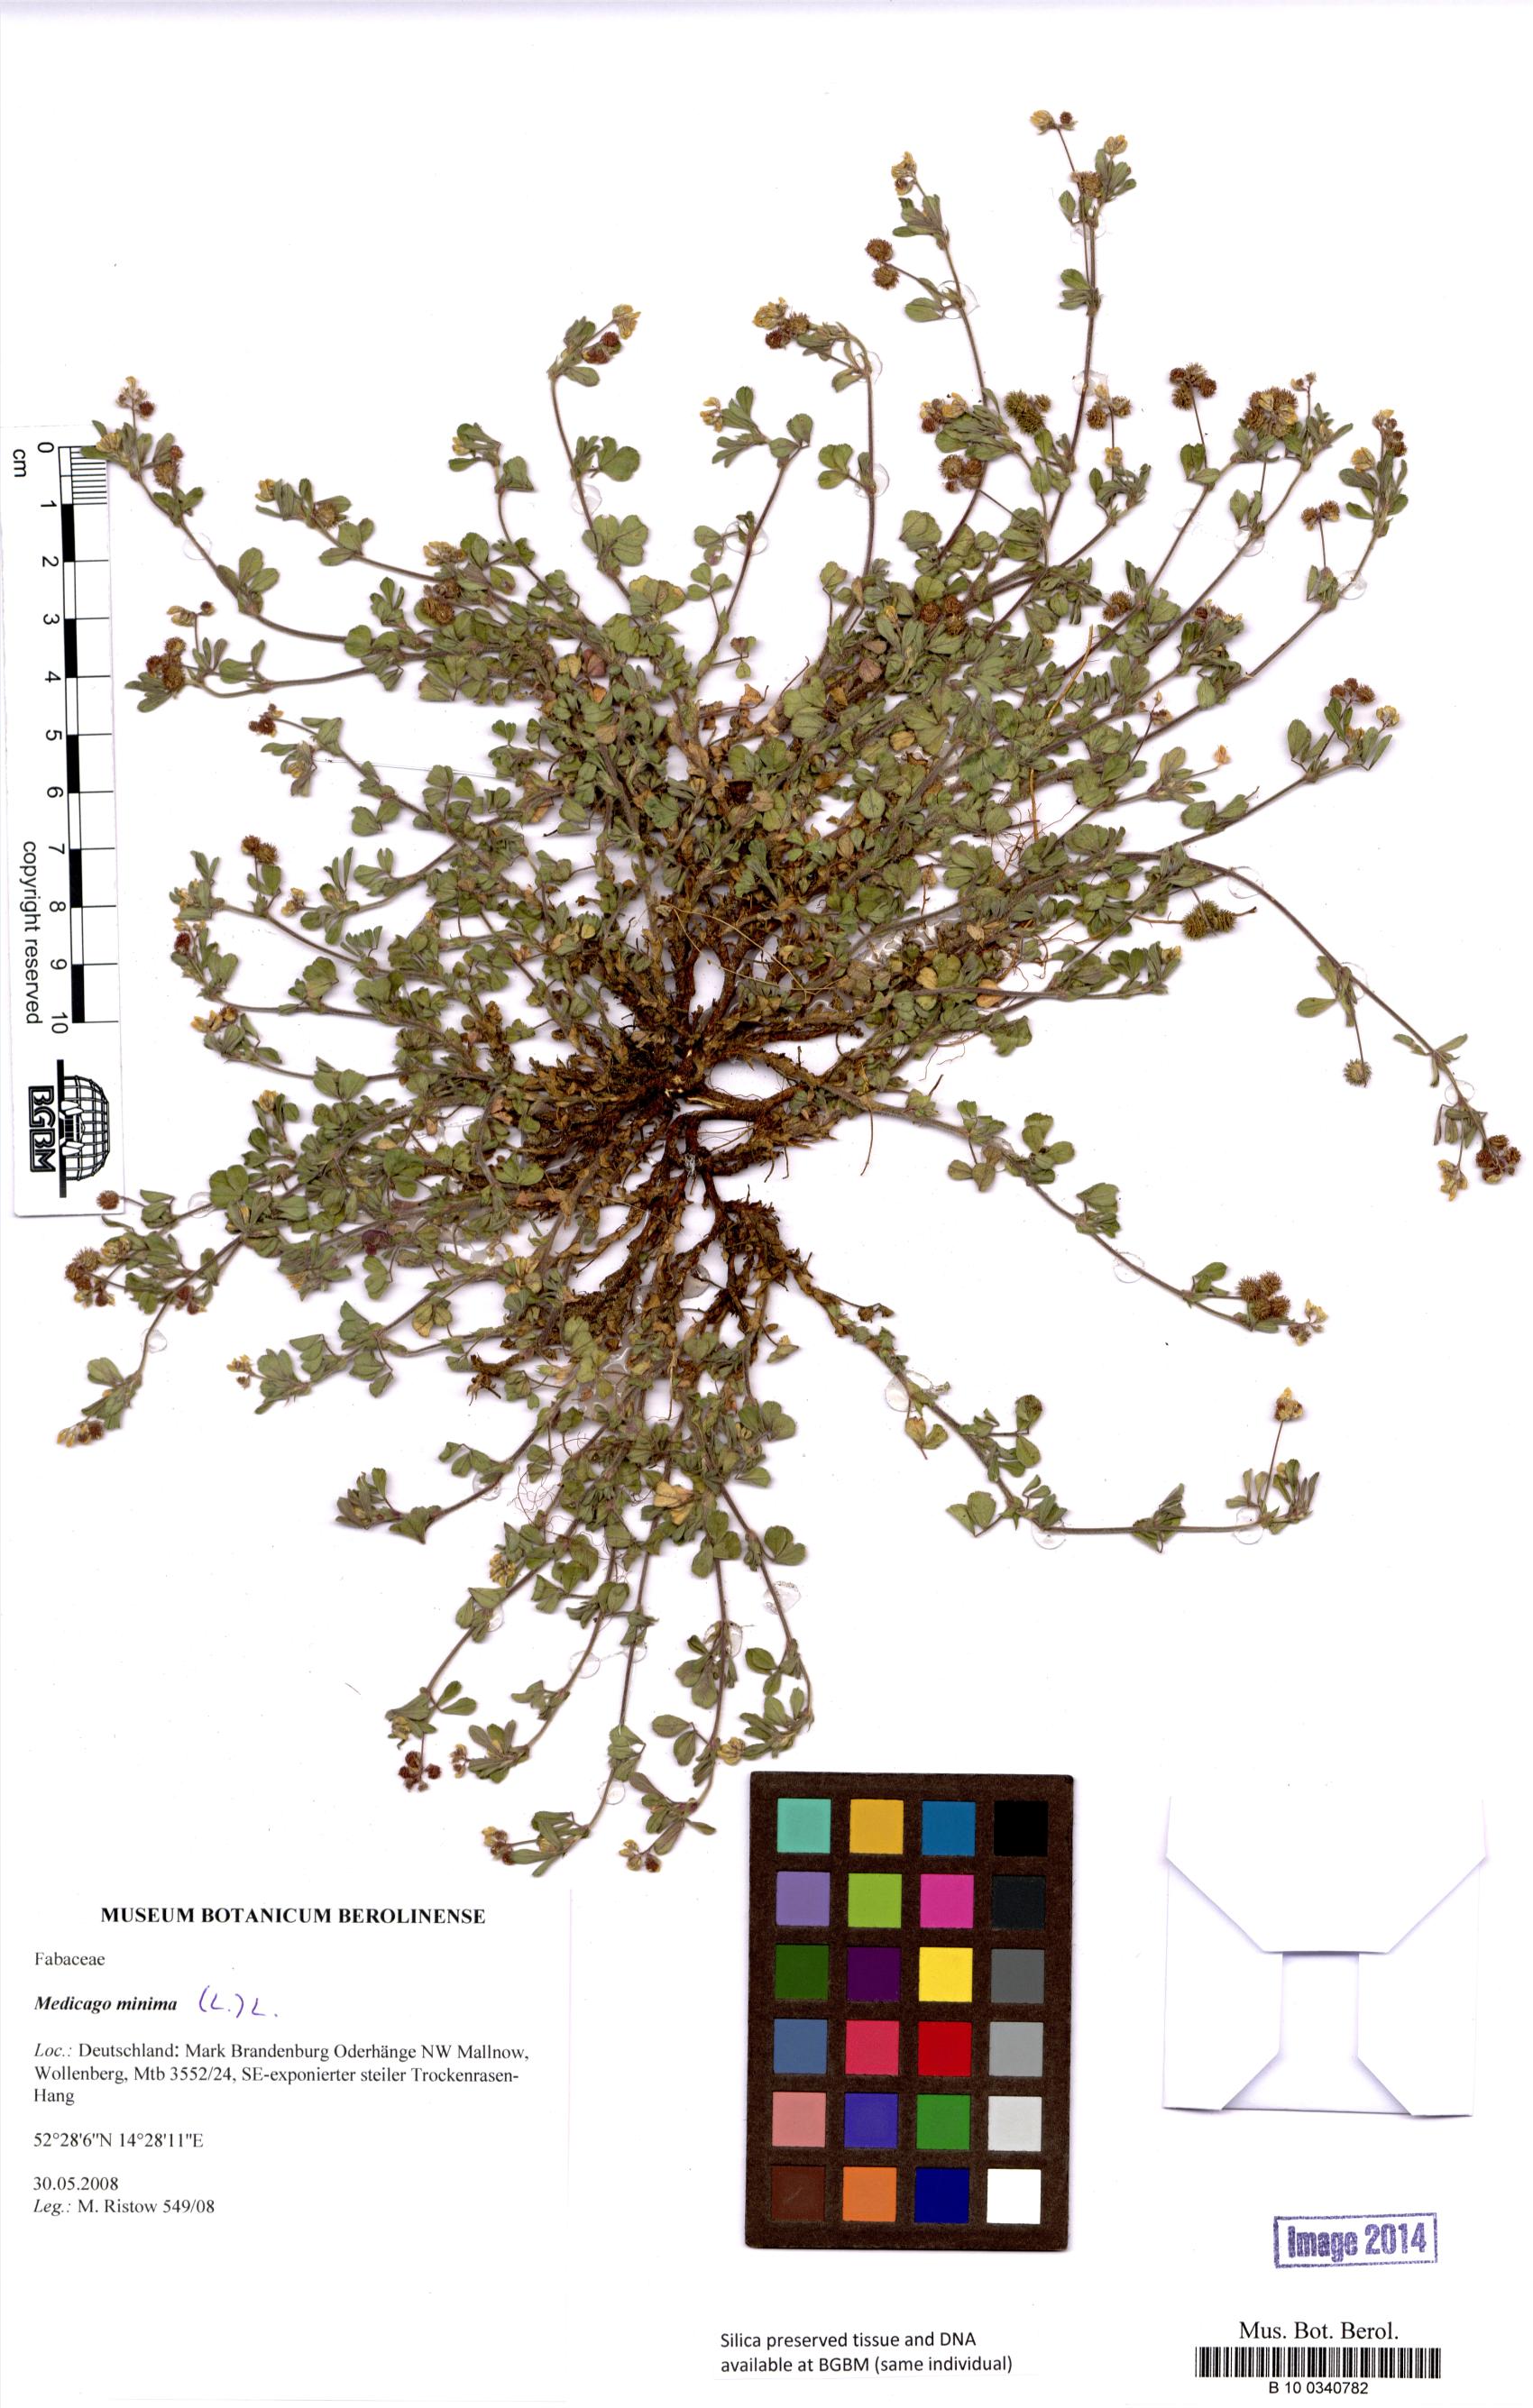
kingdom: Plantae
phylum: Tracheophyta
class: Magnoliopsida
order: Fabales
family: Fabaceae
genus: Medicago
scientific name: Medicago minima
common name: Little bur-clover
